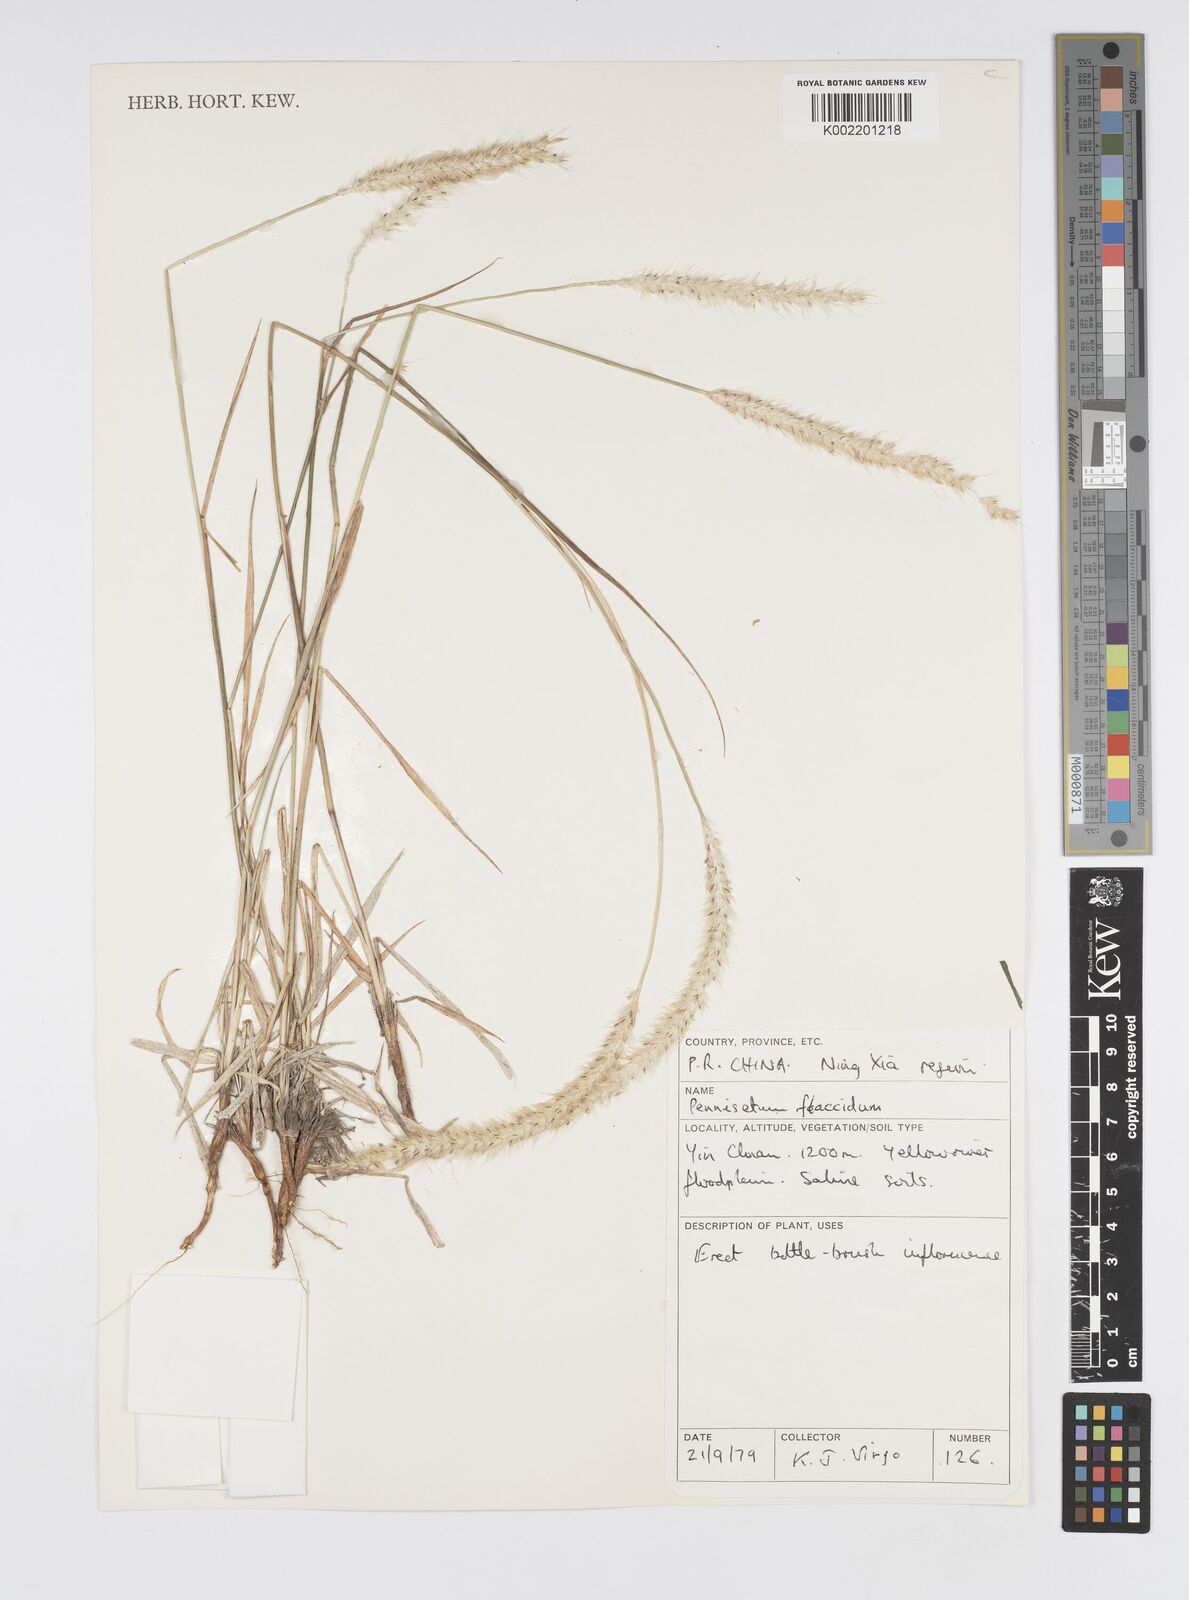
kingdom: Plantae
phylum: Tracheophyta
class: Liliopsida
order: Poales
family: Poaceae
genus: Cenchrus
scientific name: Cenchrus flaccidus
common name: Flaccid grass
